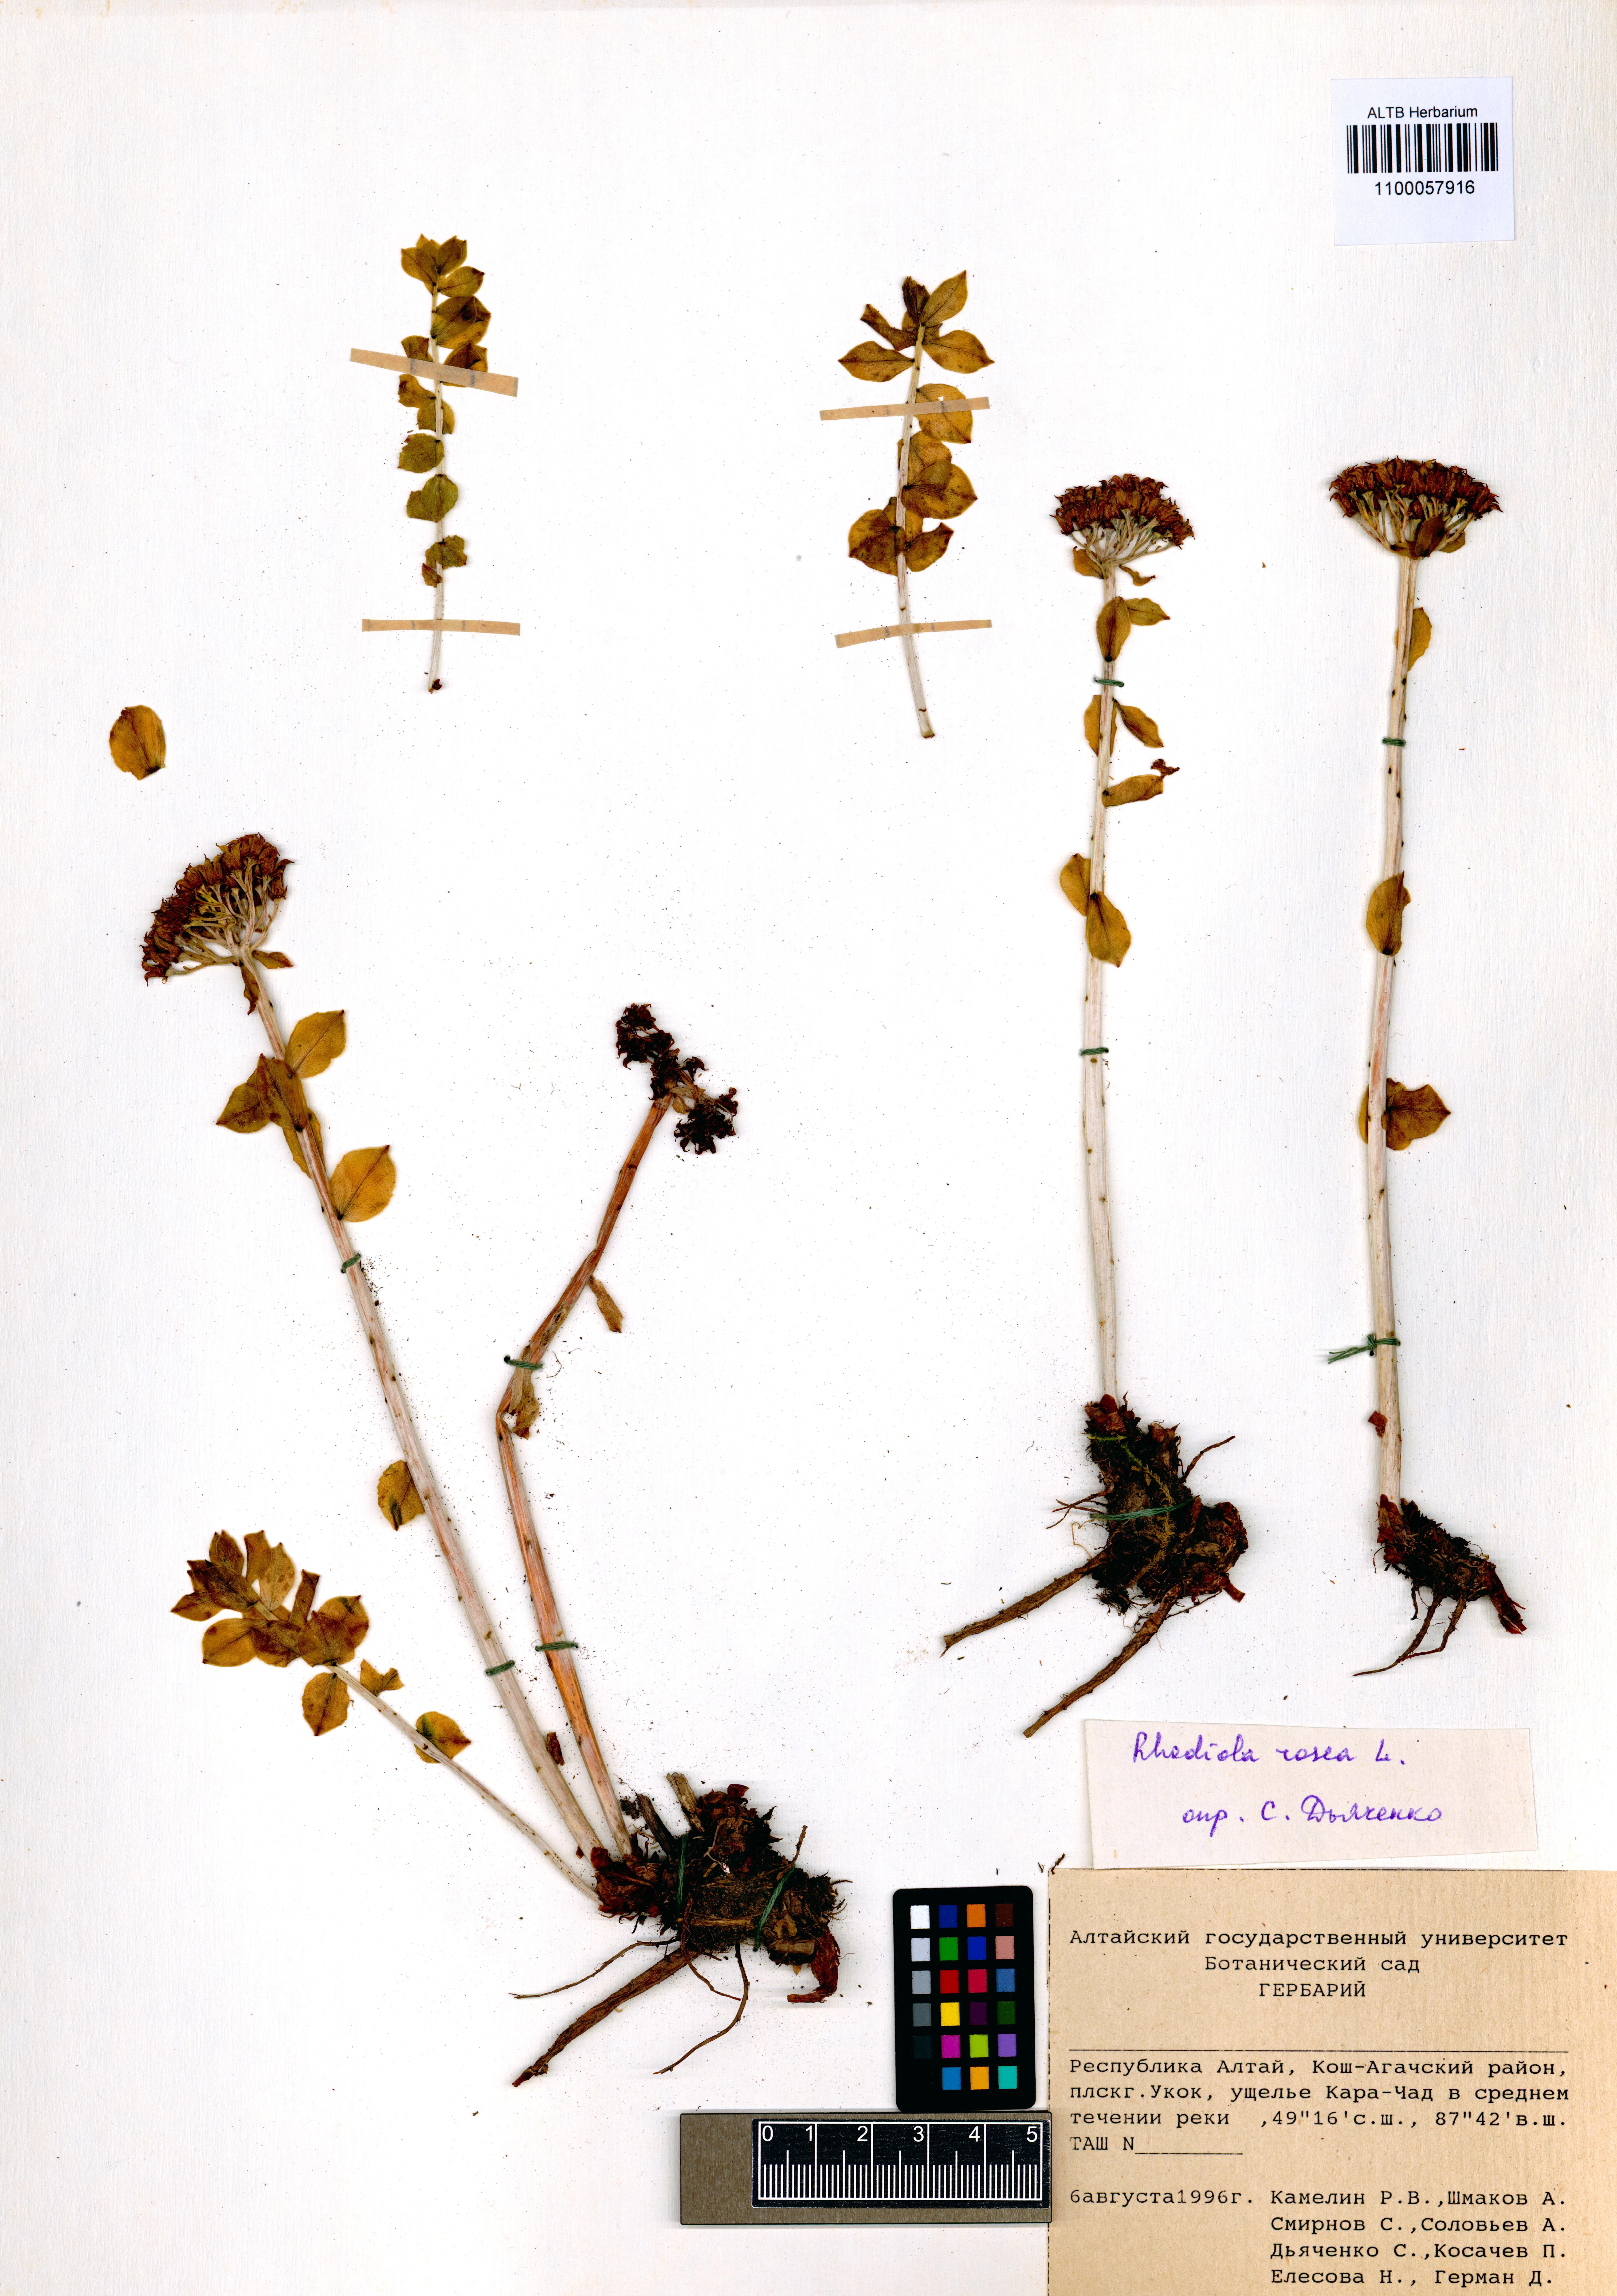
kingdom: Plantae
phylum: Tracheophyta
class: Magnoliopsida
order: Saxifragales
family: Crassulaceae
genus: Rhodiola
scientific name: Rhodiola rosea
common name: Roseroot
